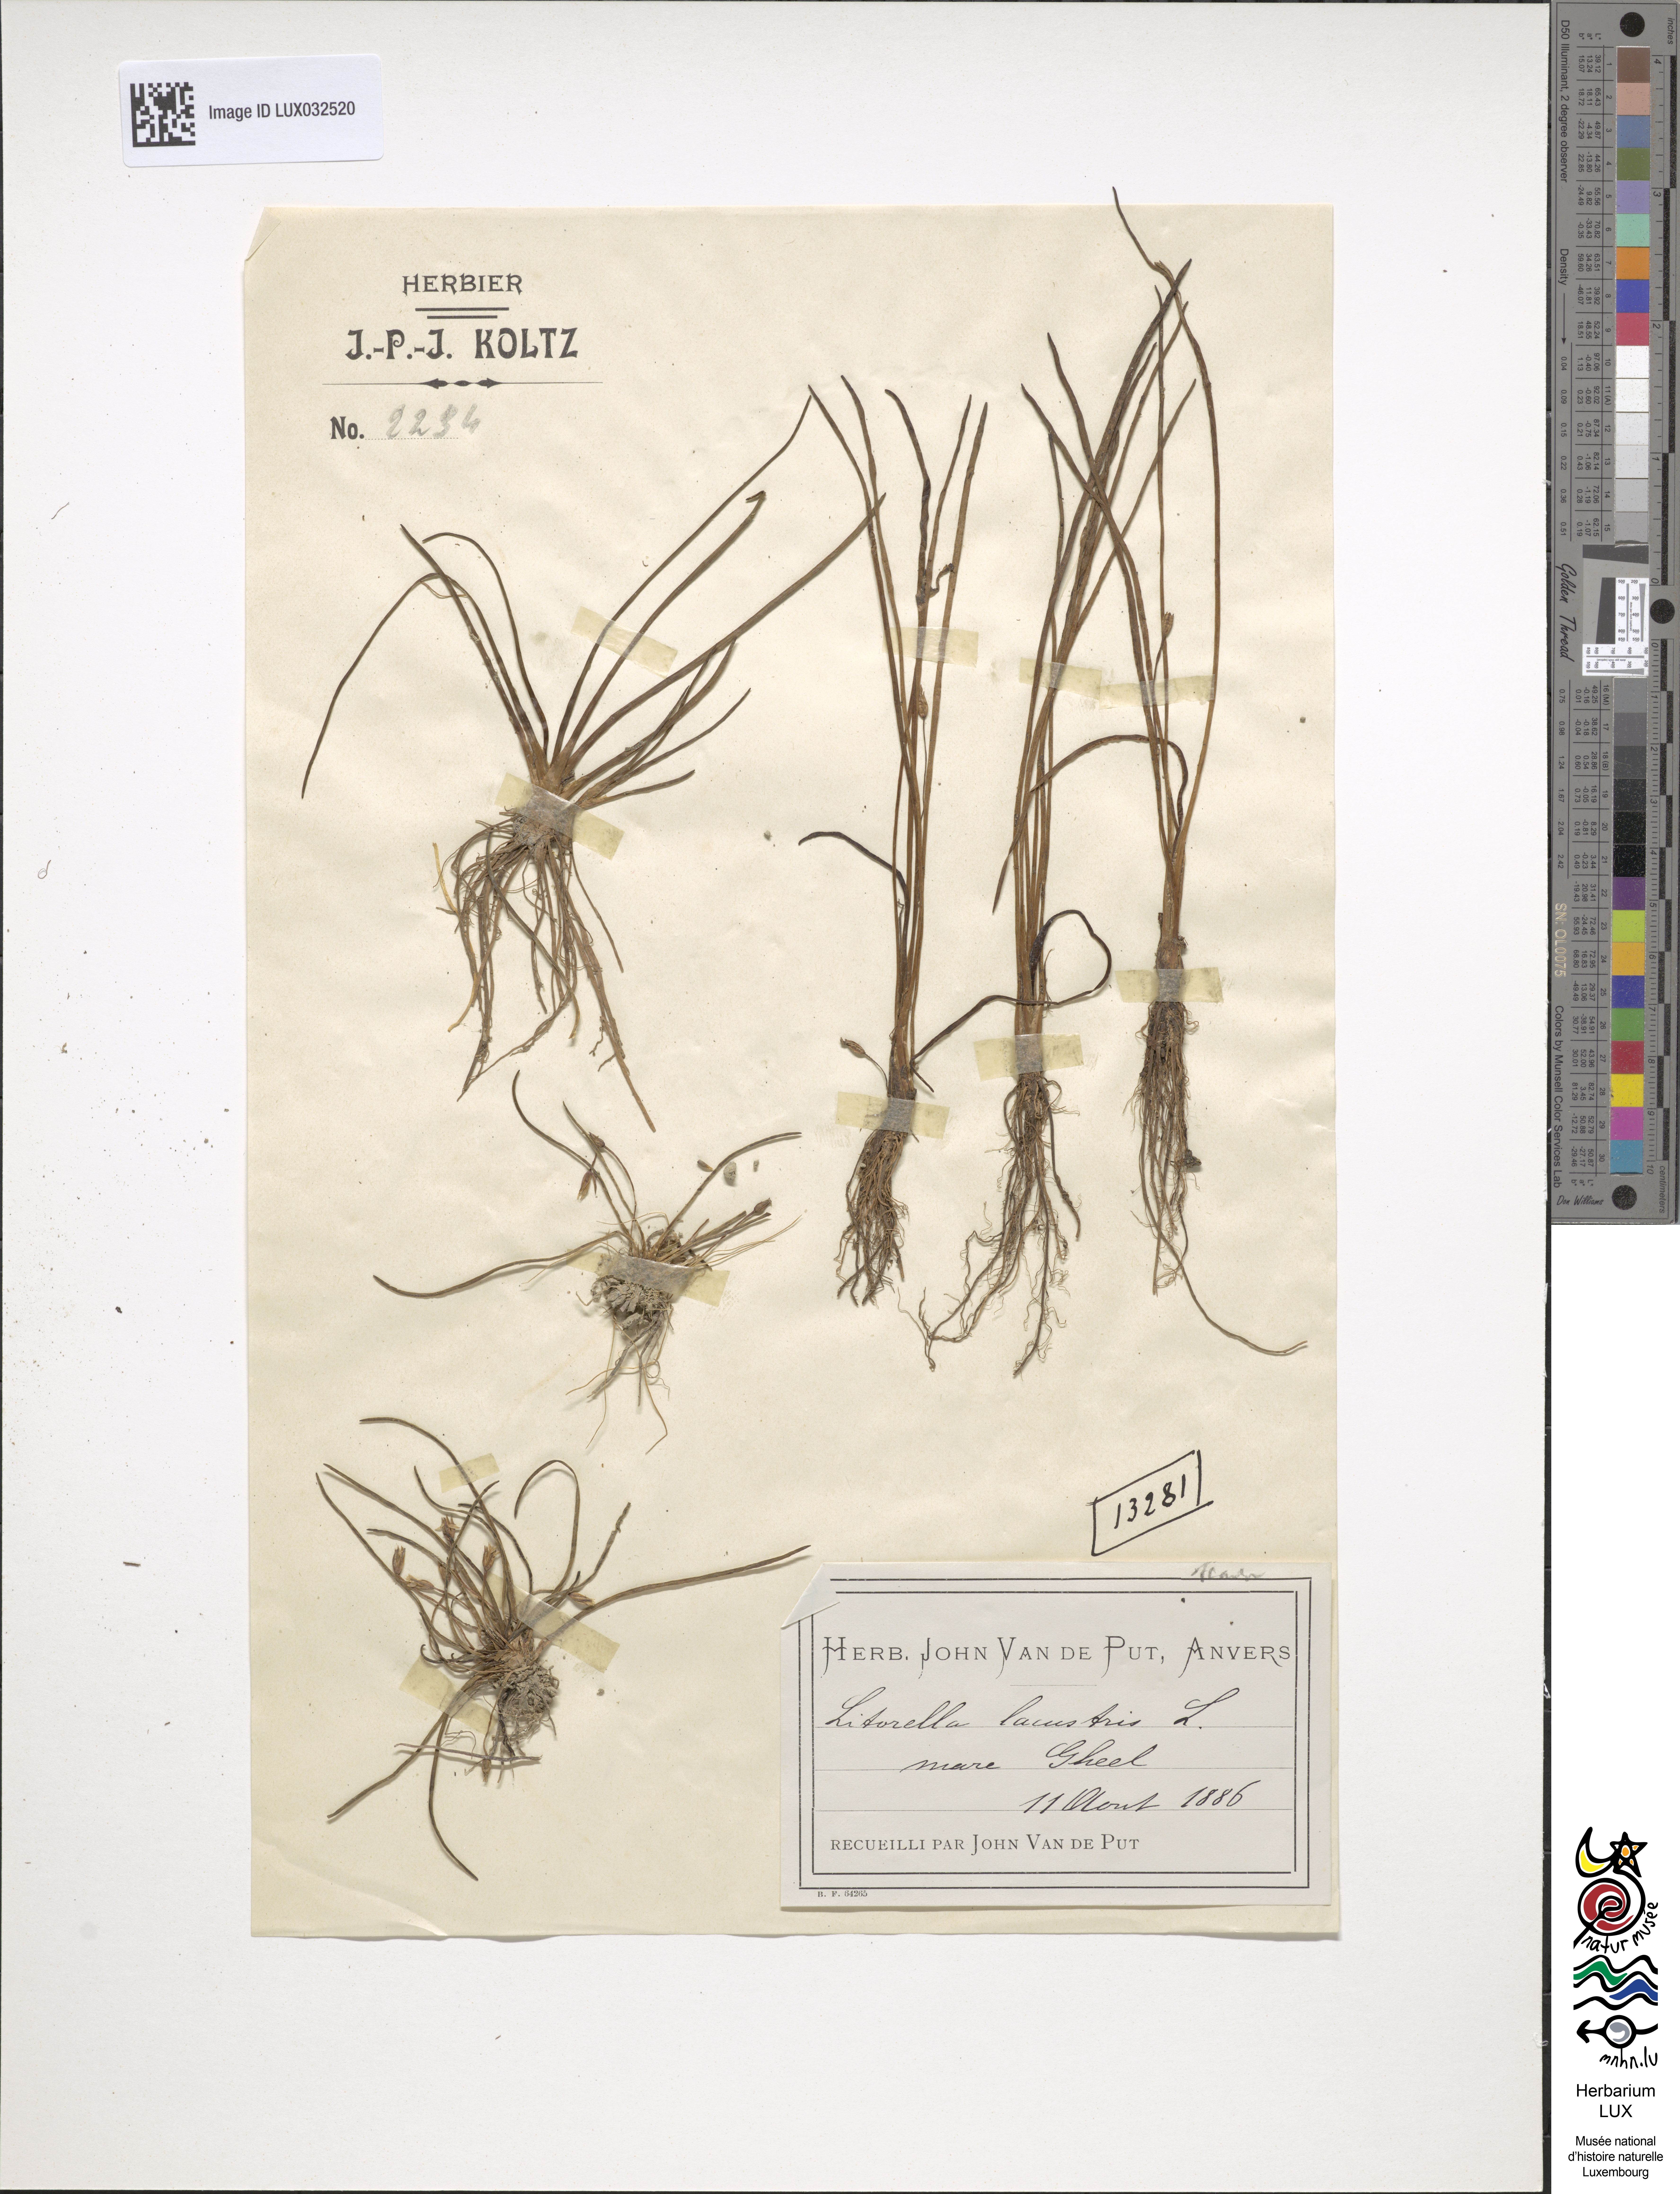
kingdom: Plantae
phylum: Tracheophyta
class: Magnoliopsida
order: Lamiales
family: Plantaginaceae
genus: Littorella
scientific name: Littorella uniflora
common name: Shoreweed
